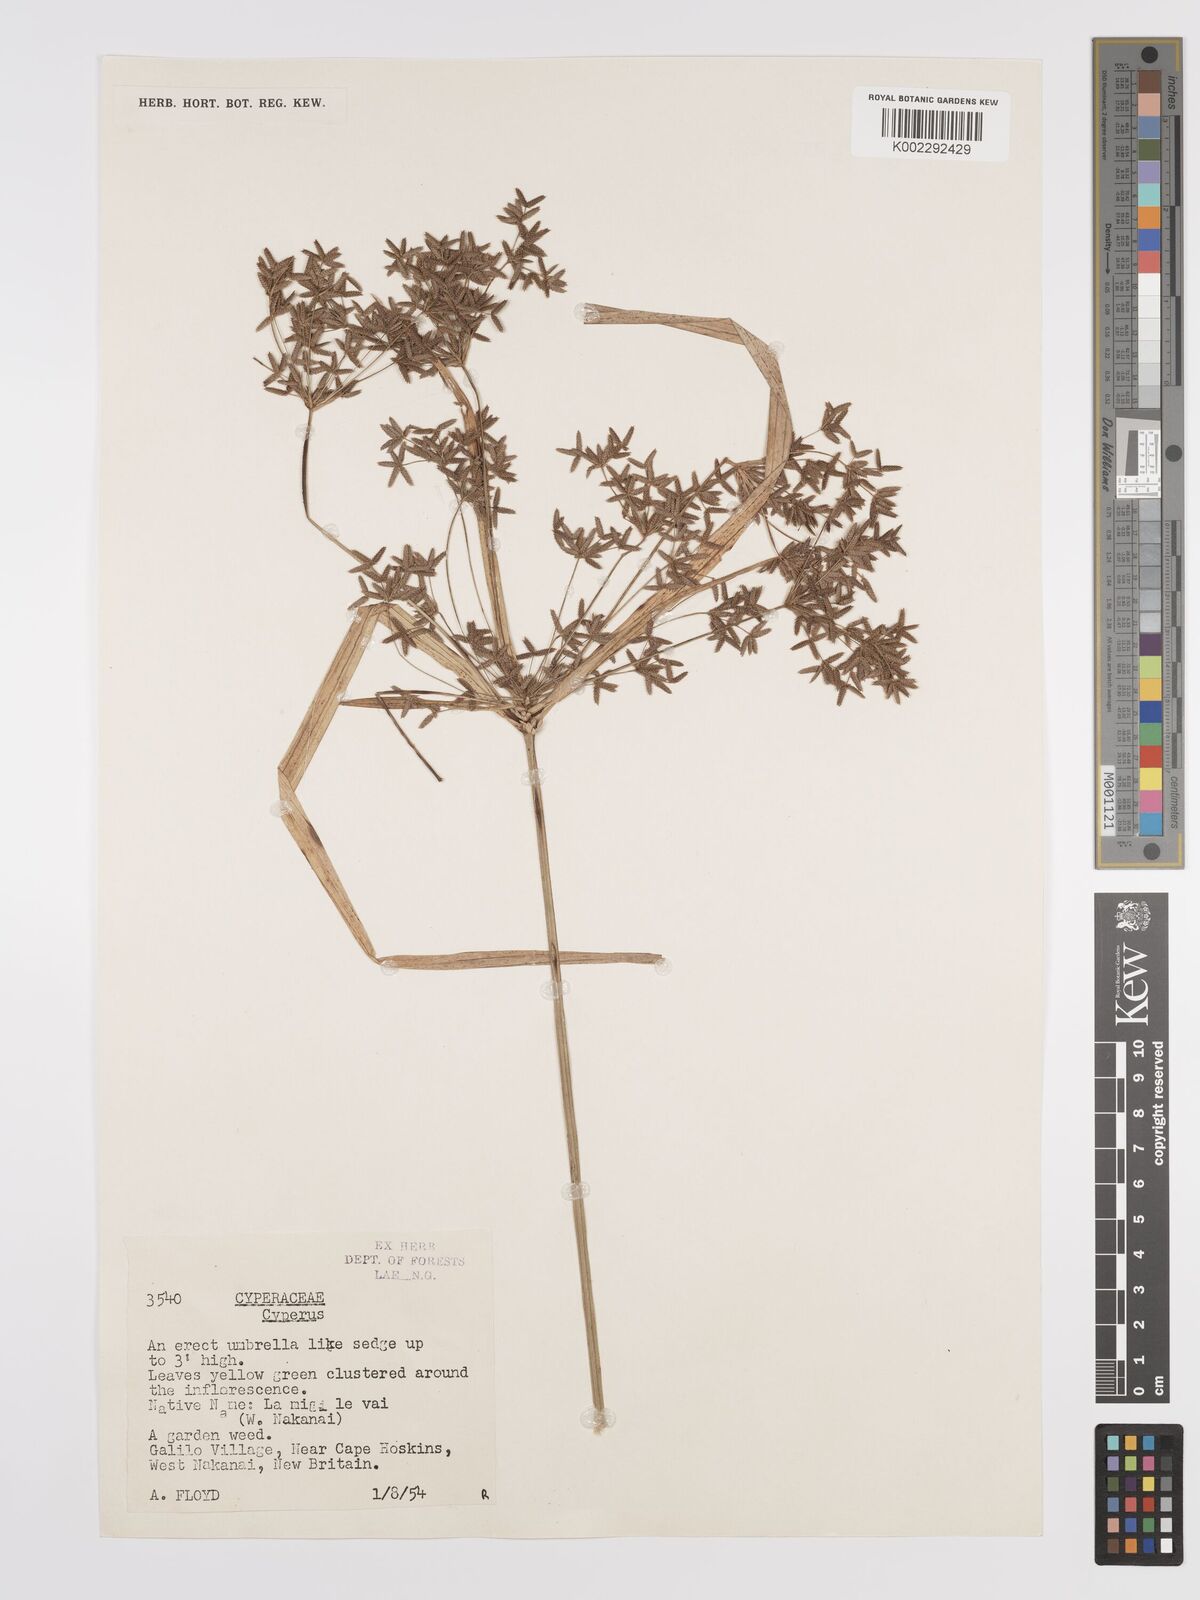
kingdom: Plantae
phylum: Tracheophyta
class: Liliopsida
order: Poales
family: Cyperaceae
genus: Cyperus
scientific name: Cyperus diffusus
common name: Dwarf umbrella grass
